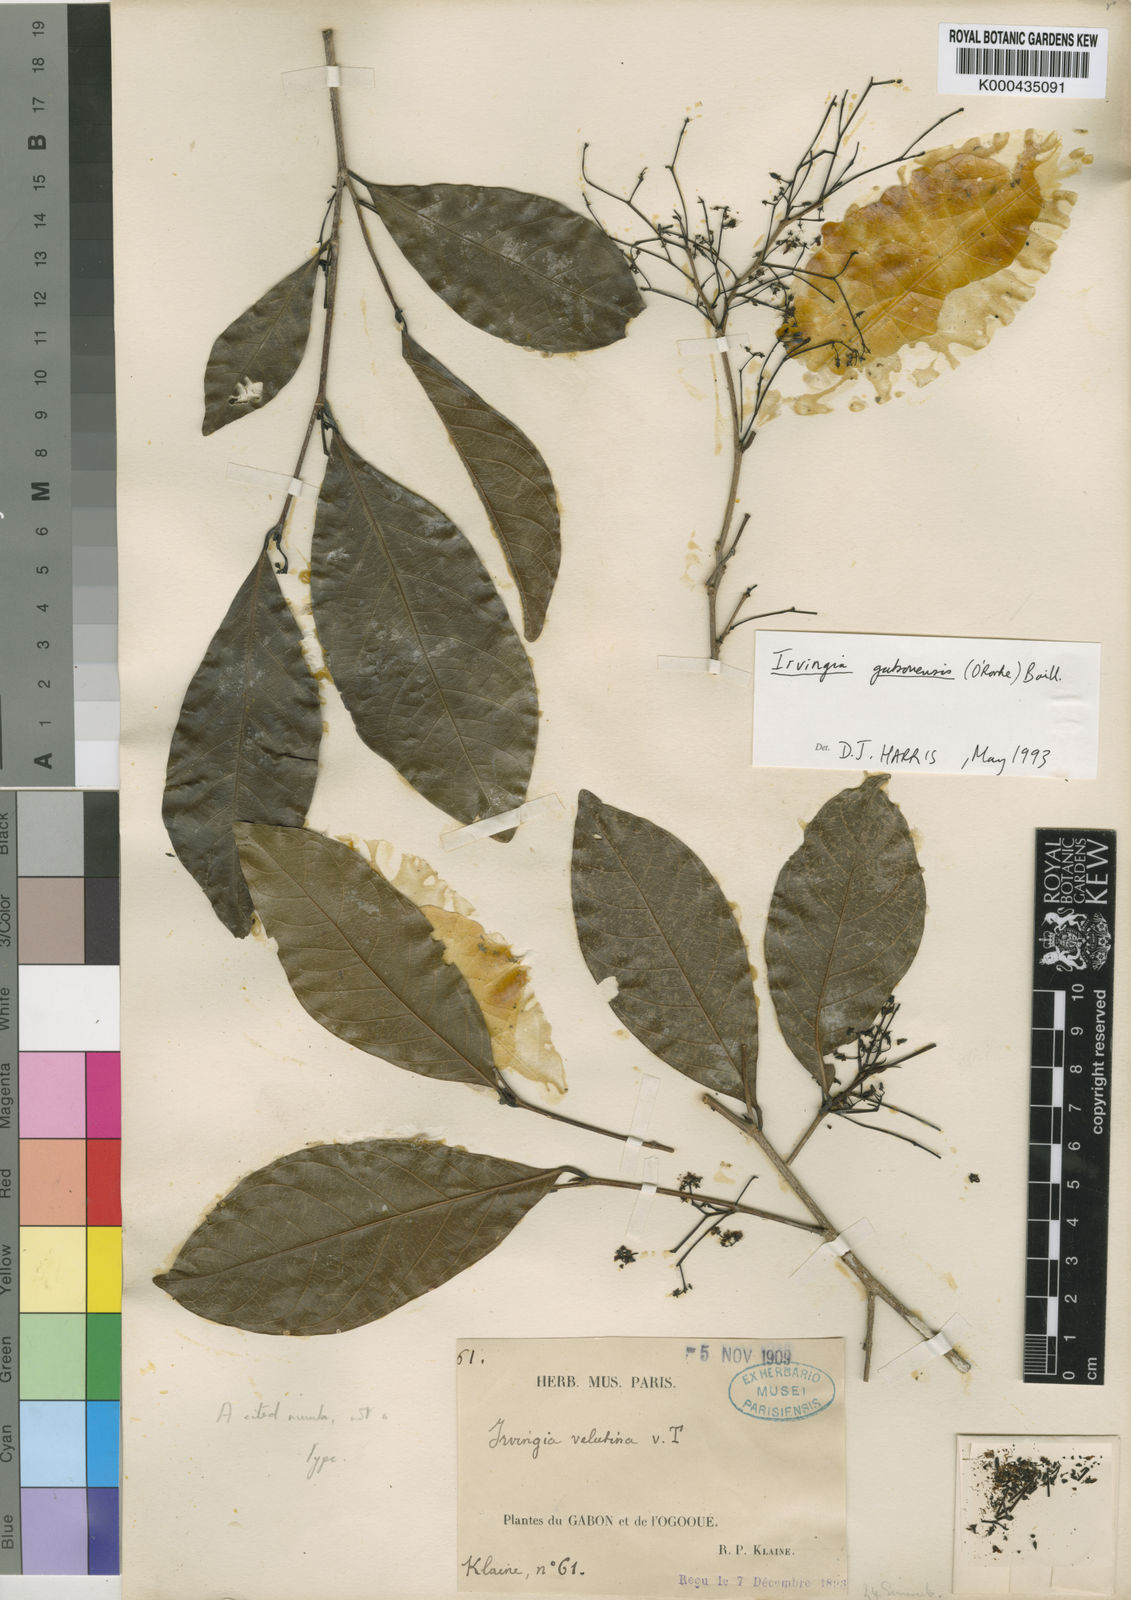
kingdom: Plantae
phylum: Tracheophyta
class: Magnoliopsida
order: Malpighiales
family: Irvingiaceae
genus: Irvingia
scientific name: Irvingia gabonensis
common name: Rainy season bush-mango
